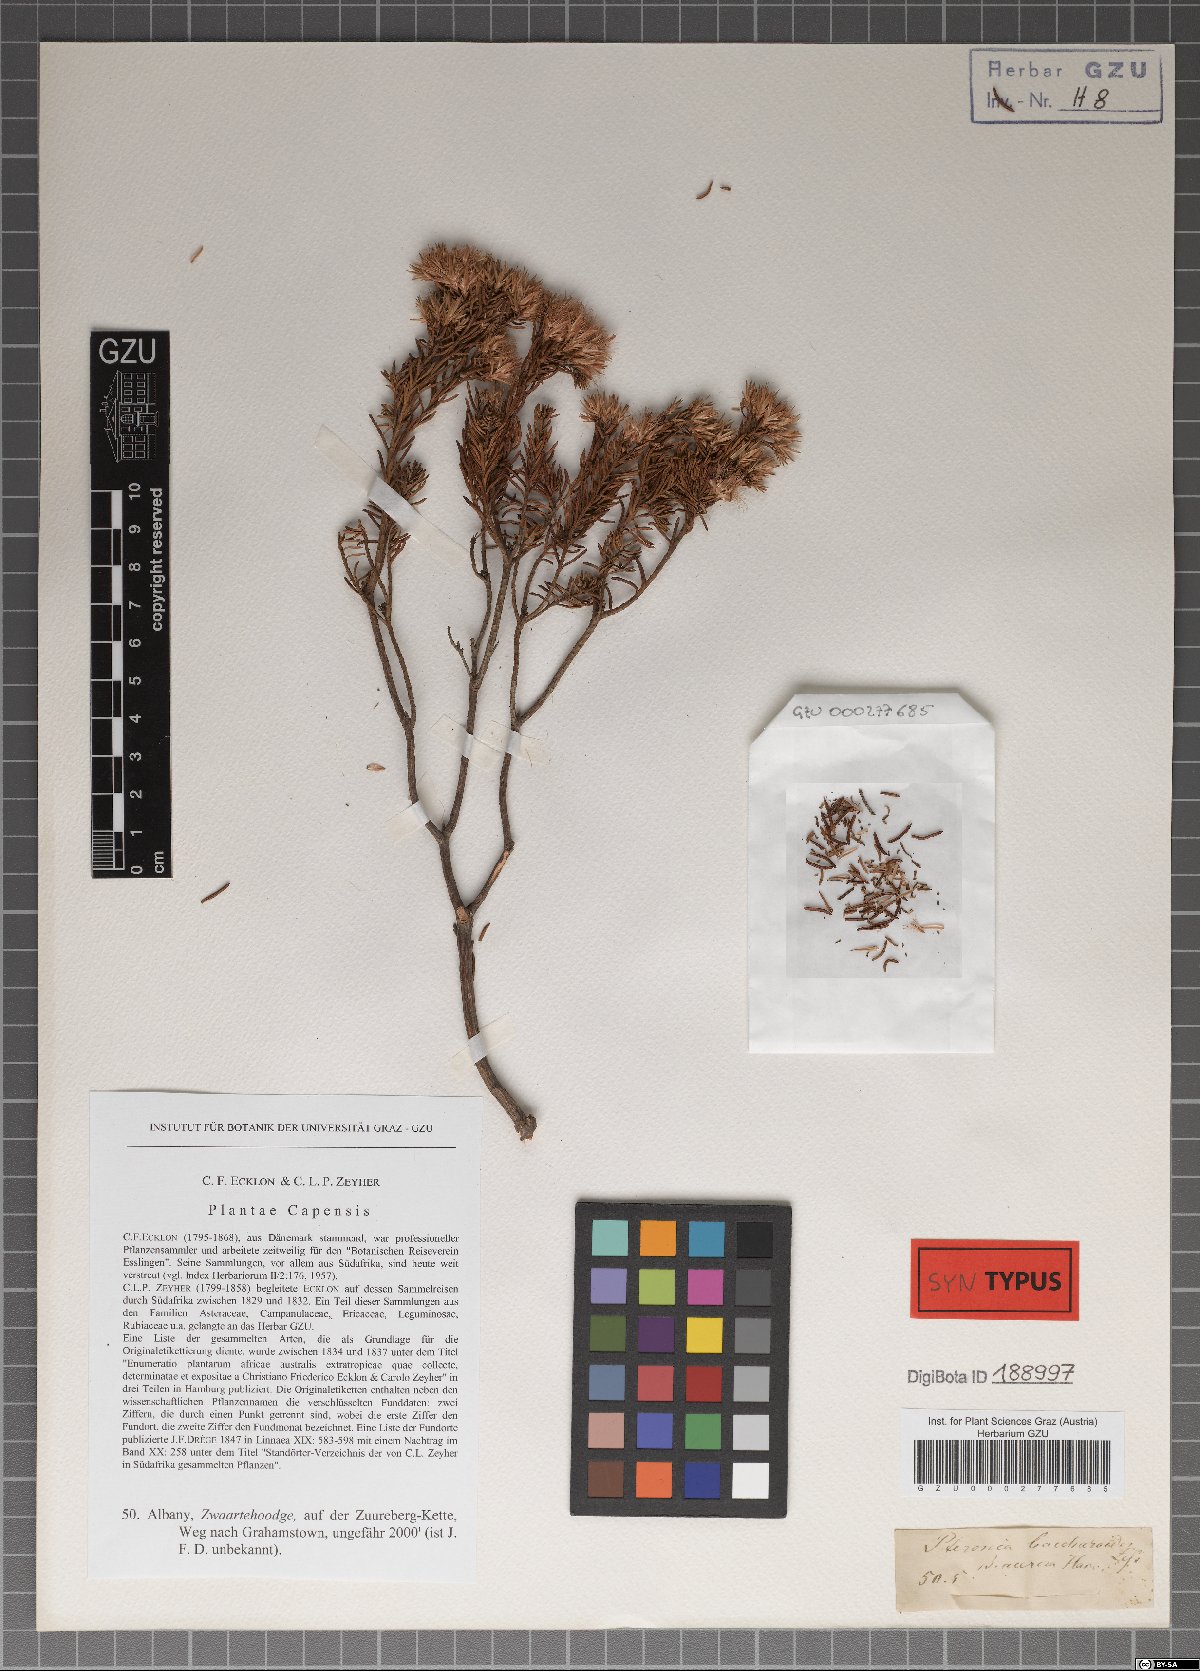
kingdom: Plantae
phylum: Tracheophyta
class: Magnoliopsida
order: Asterales
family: Asteraceae
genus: Pteronia
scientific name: Pteronia teretifolia
